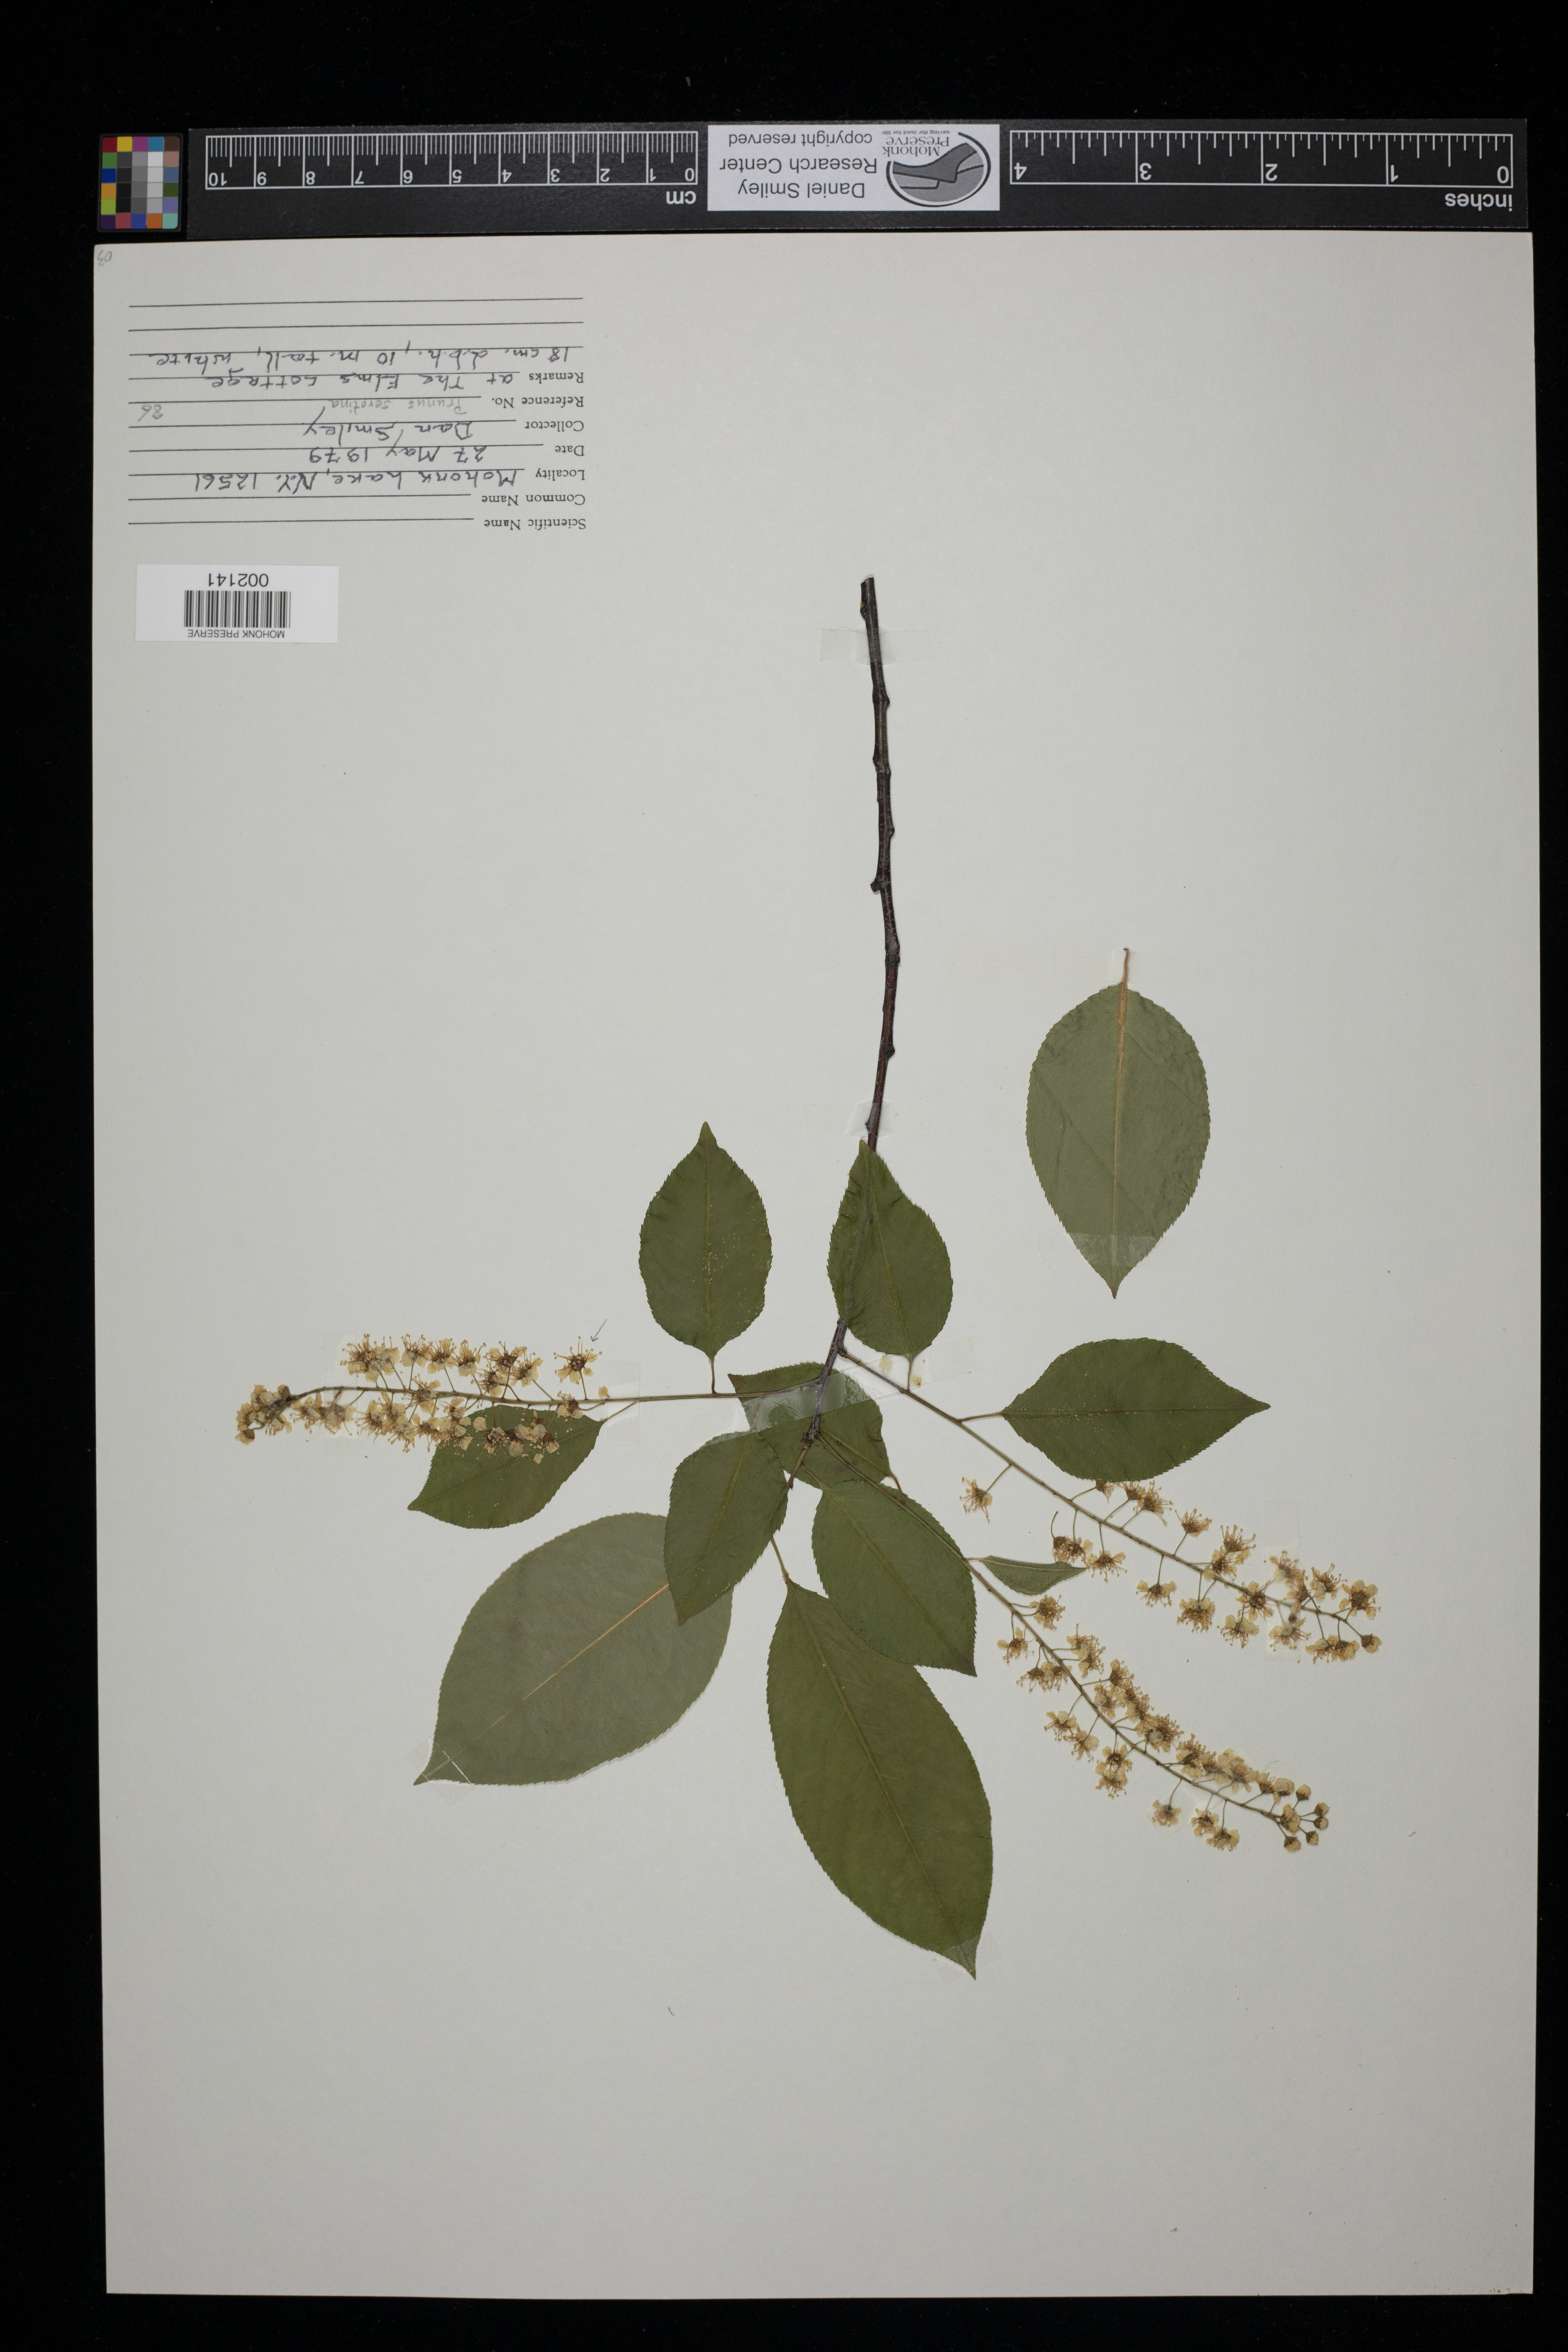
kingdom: Plantae
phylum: Tracheophyta
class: Magnoliopsida
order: Rosales
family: Rosaceae
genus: Prunus
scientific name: Prunus serotina
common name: Black cherry
